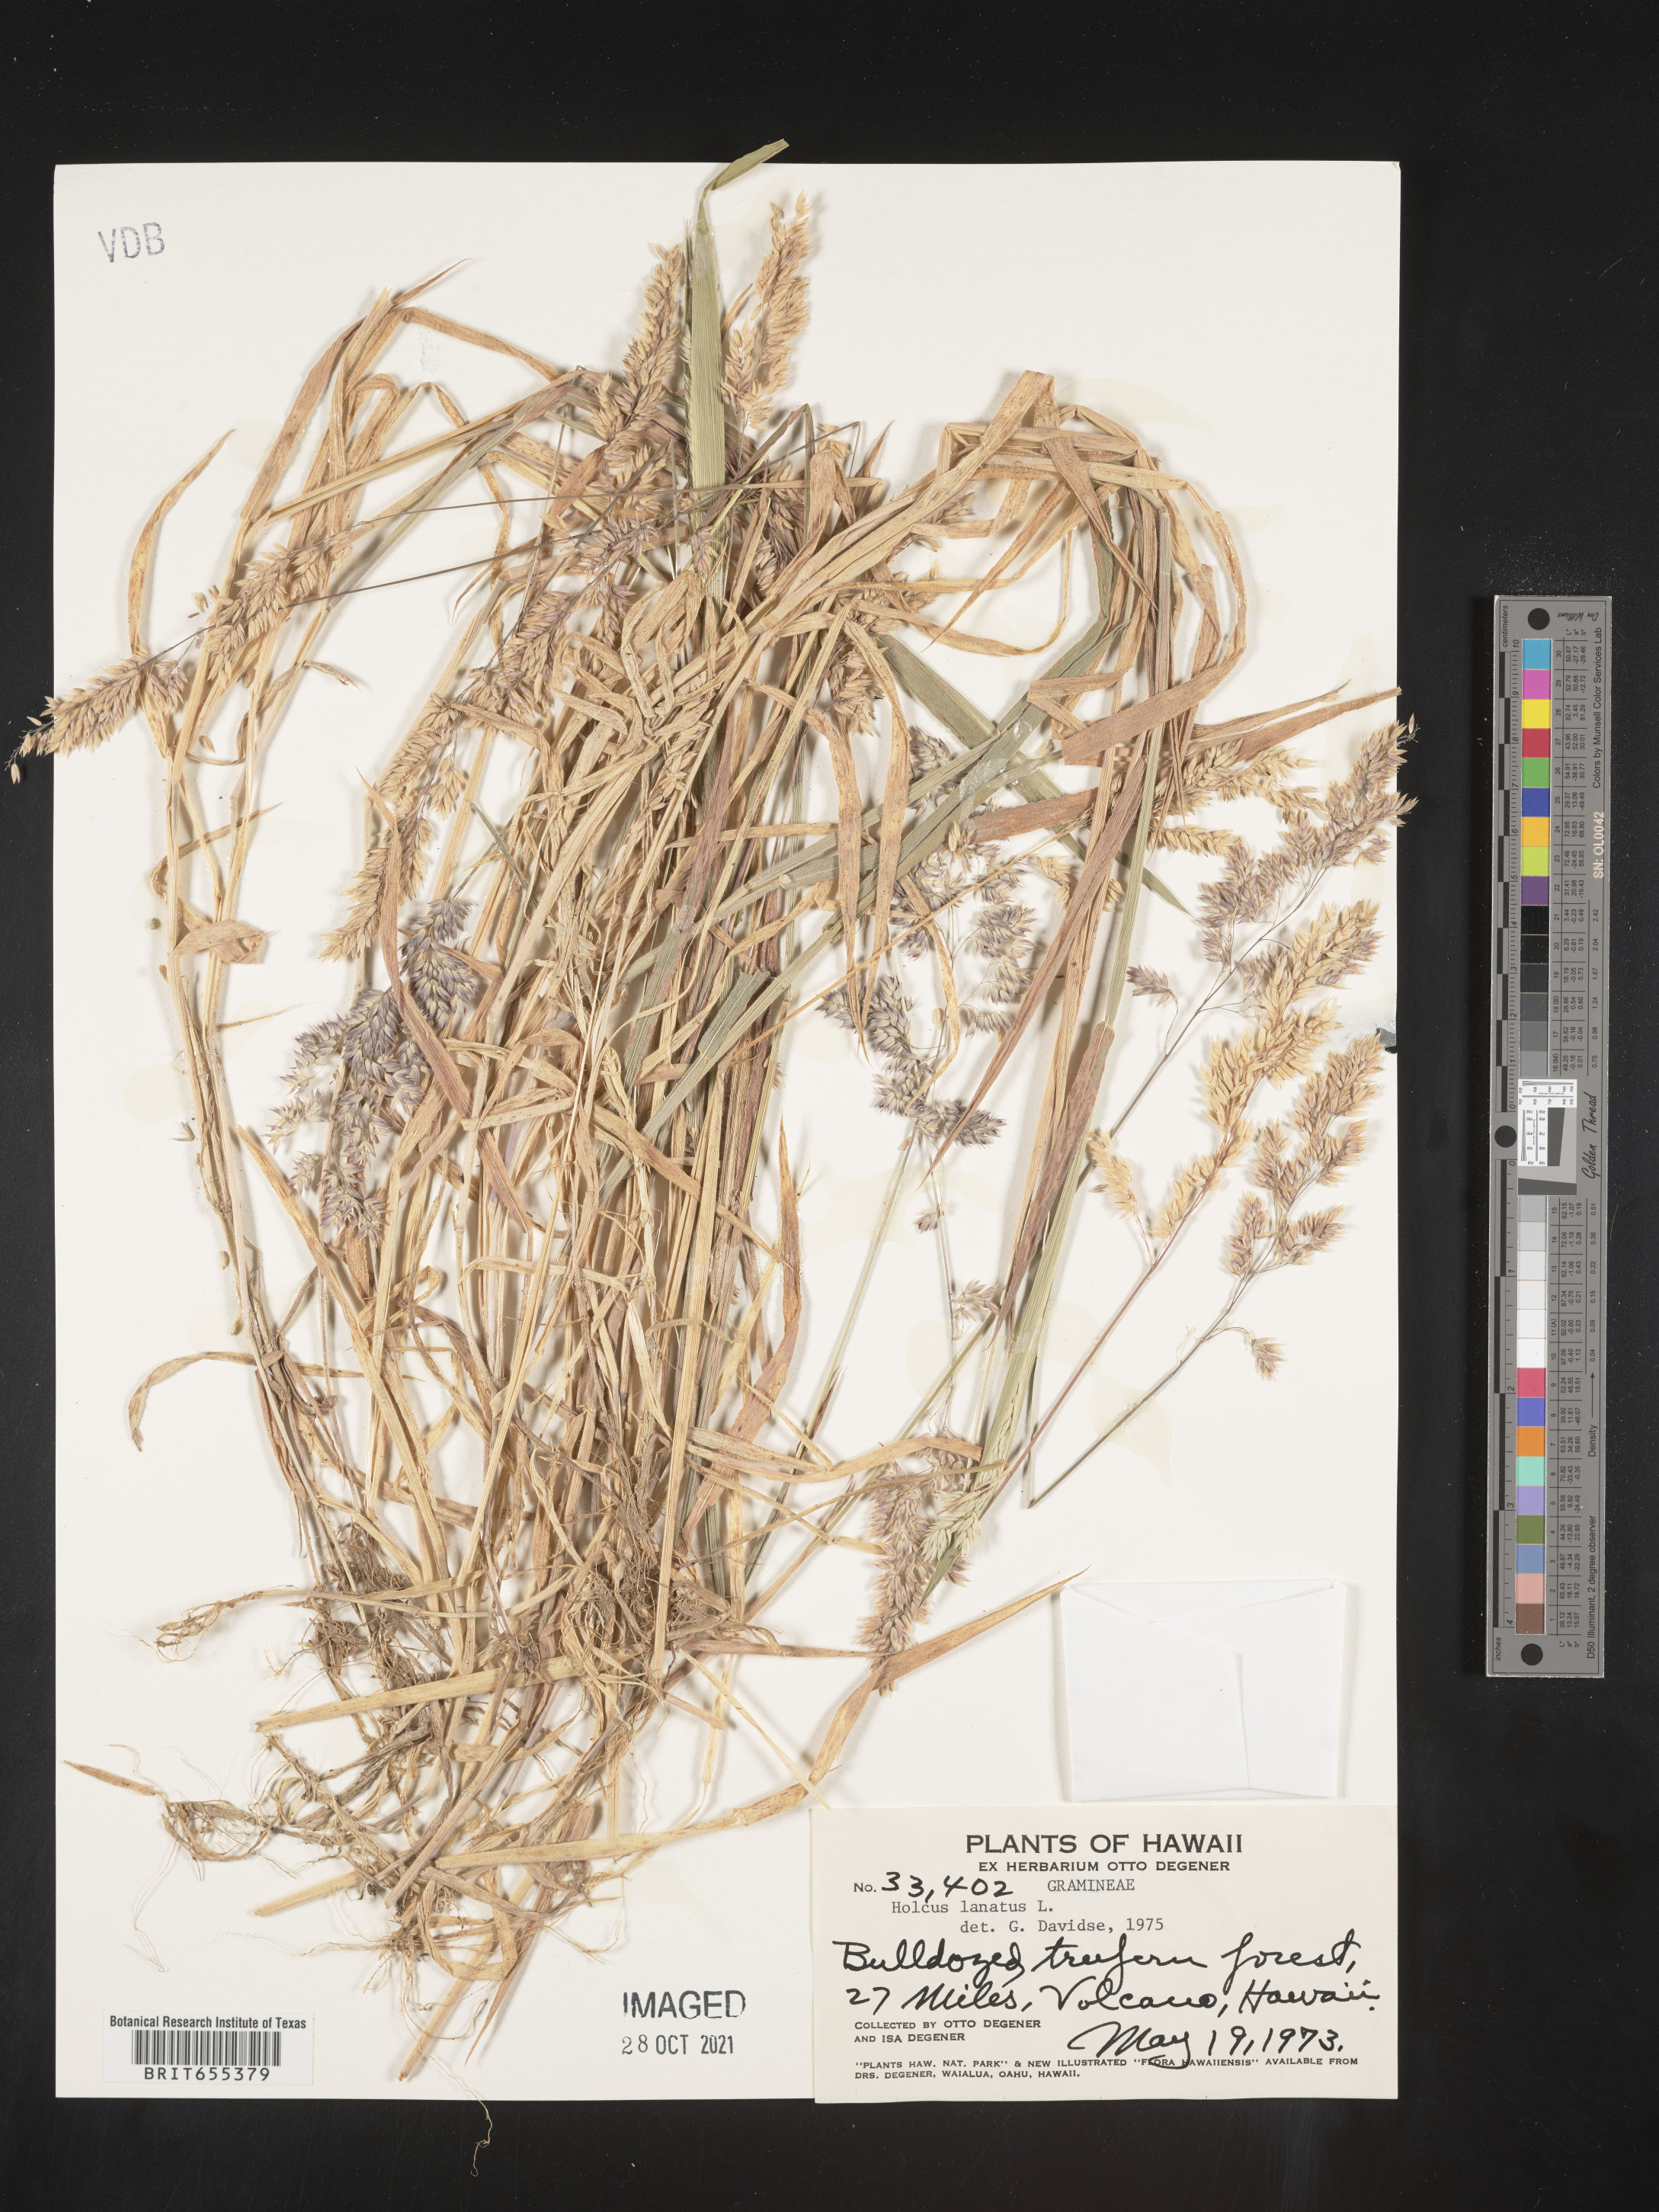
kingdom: Plantae
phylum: Tracheophyta
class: Liliopsida
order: Poales
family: Poaceae
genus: Holcus
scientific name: Holcus
